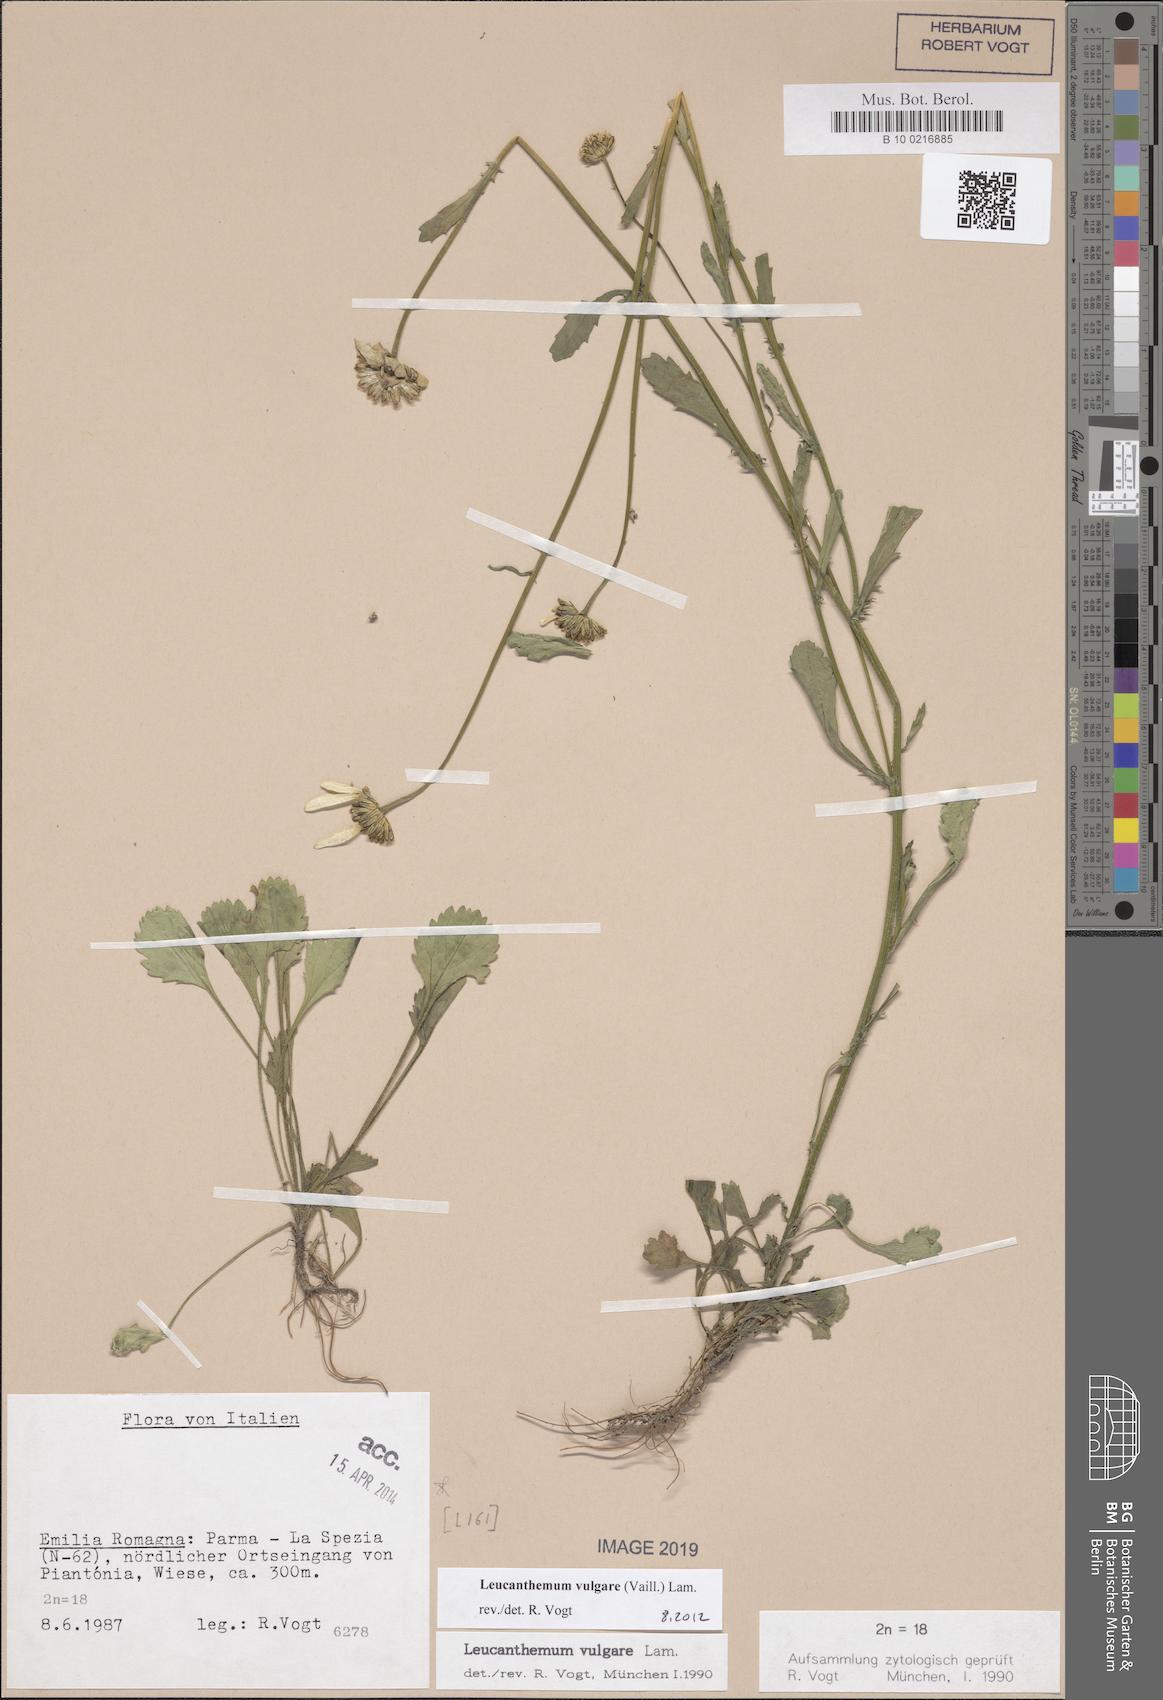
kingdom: Plantae
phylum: Tracheophyta
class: Magnoliopsida
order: Asterales
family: Asteraceae
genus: Leucanthemum
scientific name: Leucanthemum vulgare
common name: Oxeye daisy
